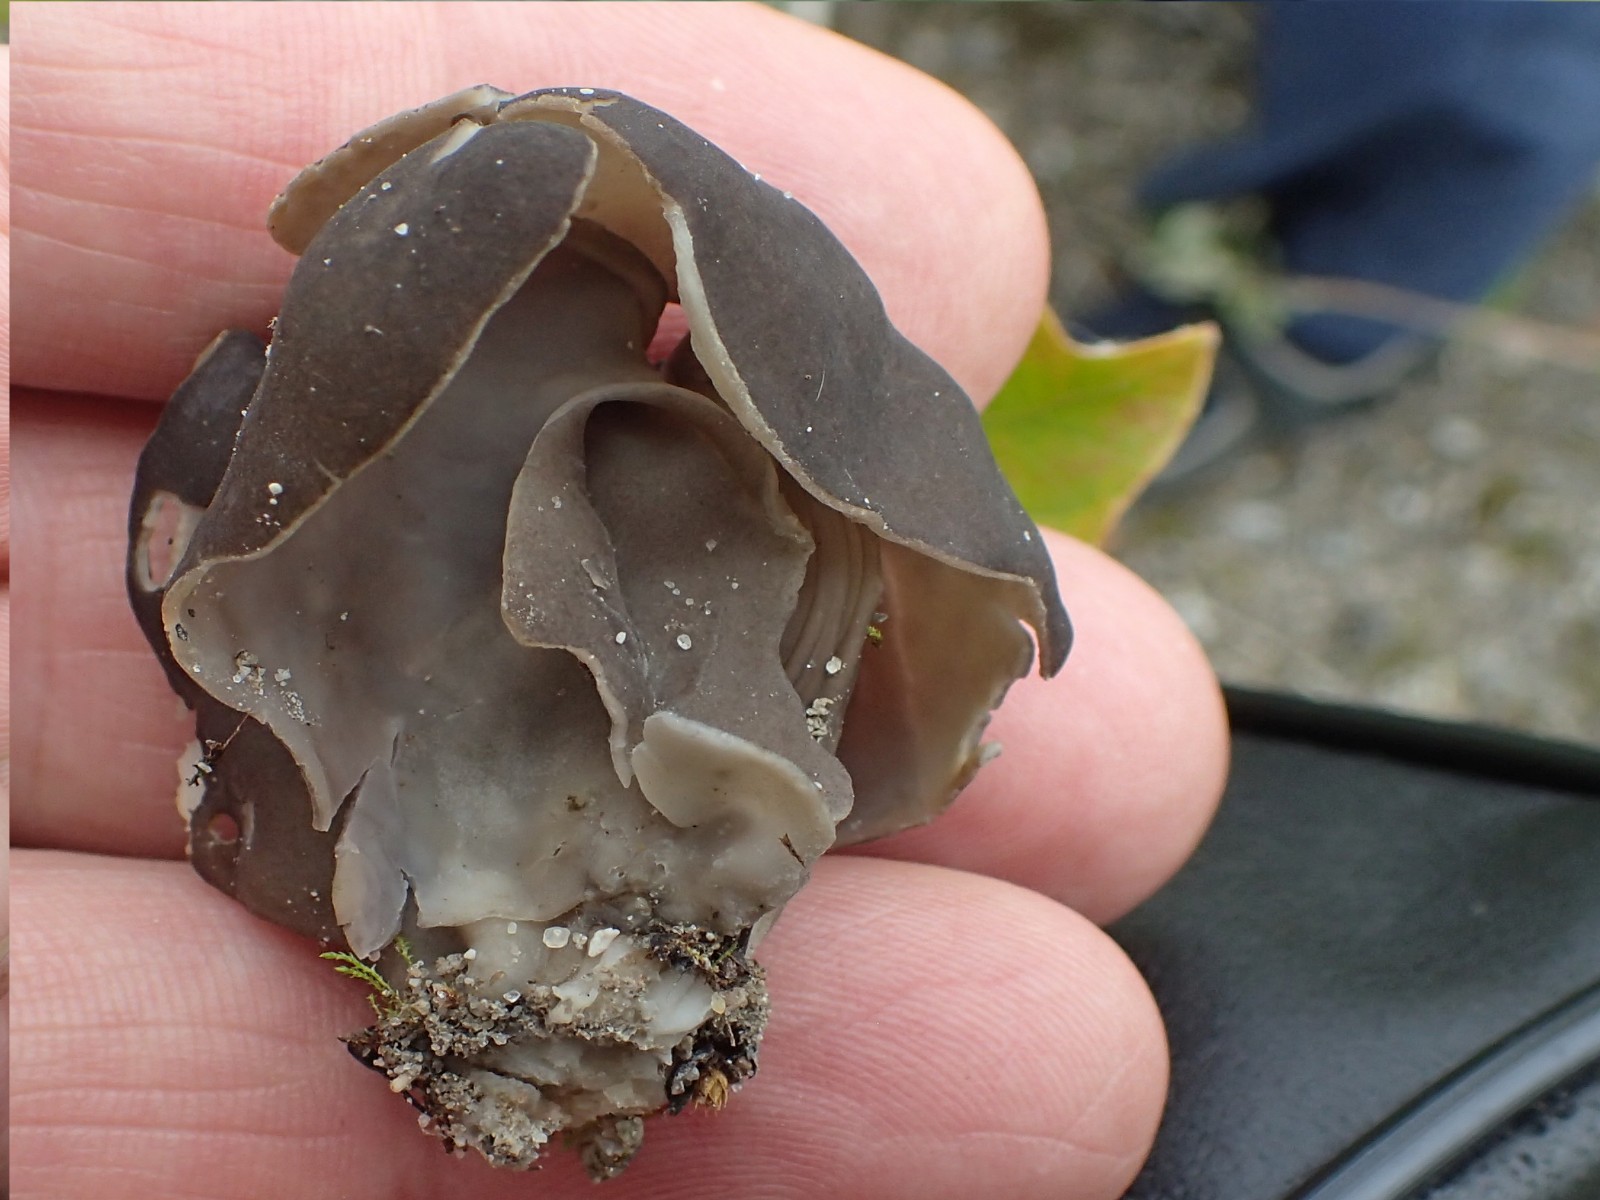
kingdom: Fungi
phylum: Ascomycota
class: Pezizomycetes
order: Pezizales
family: Helvellaceae
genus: Helvella
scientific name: Helvella lacunosa
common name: grubet foldhat
